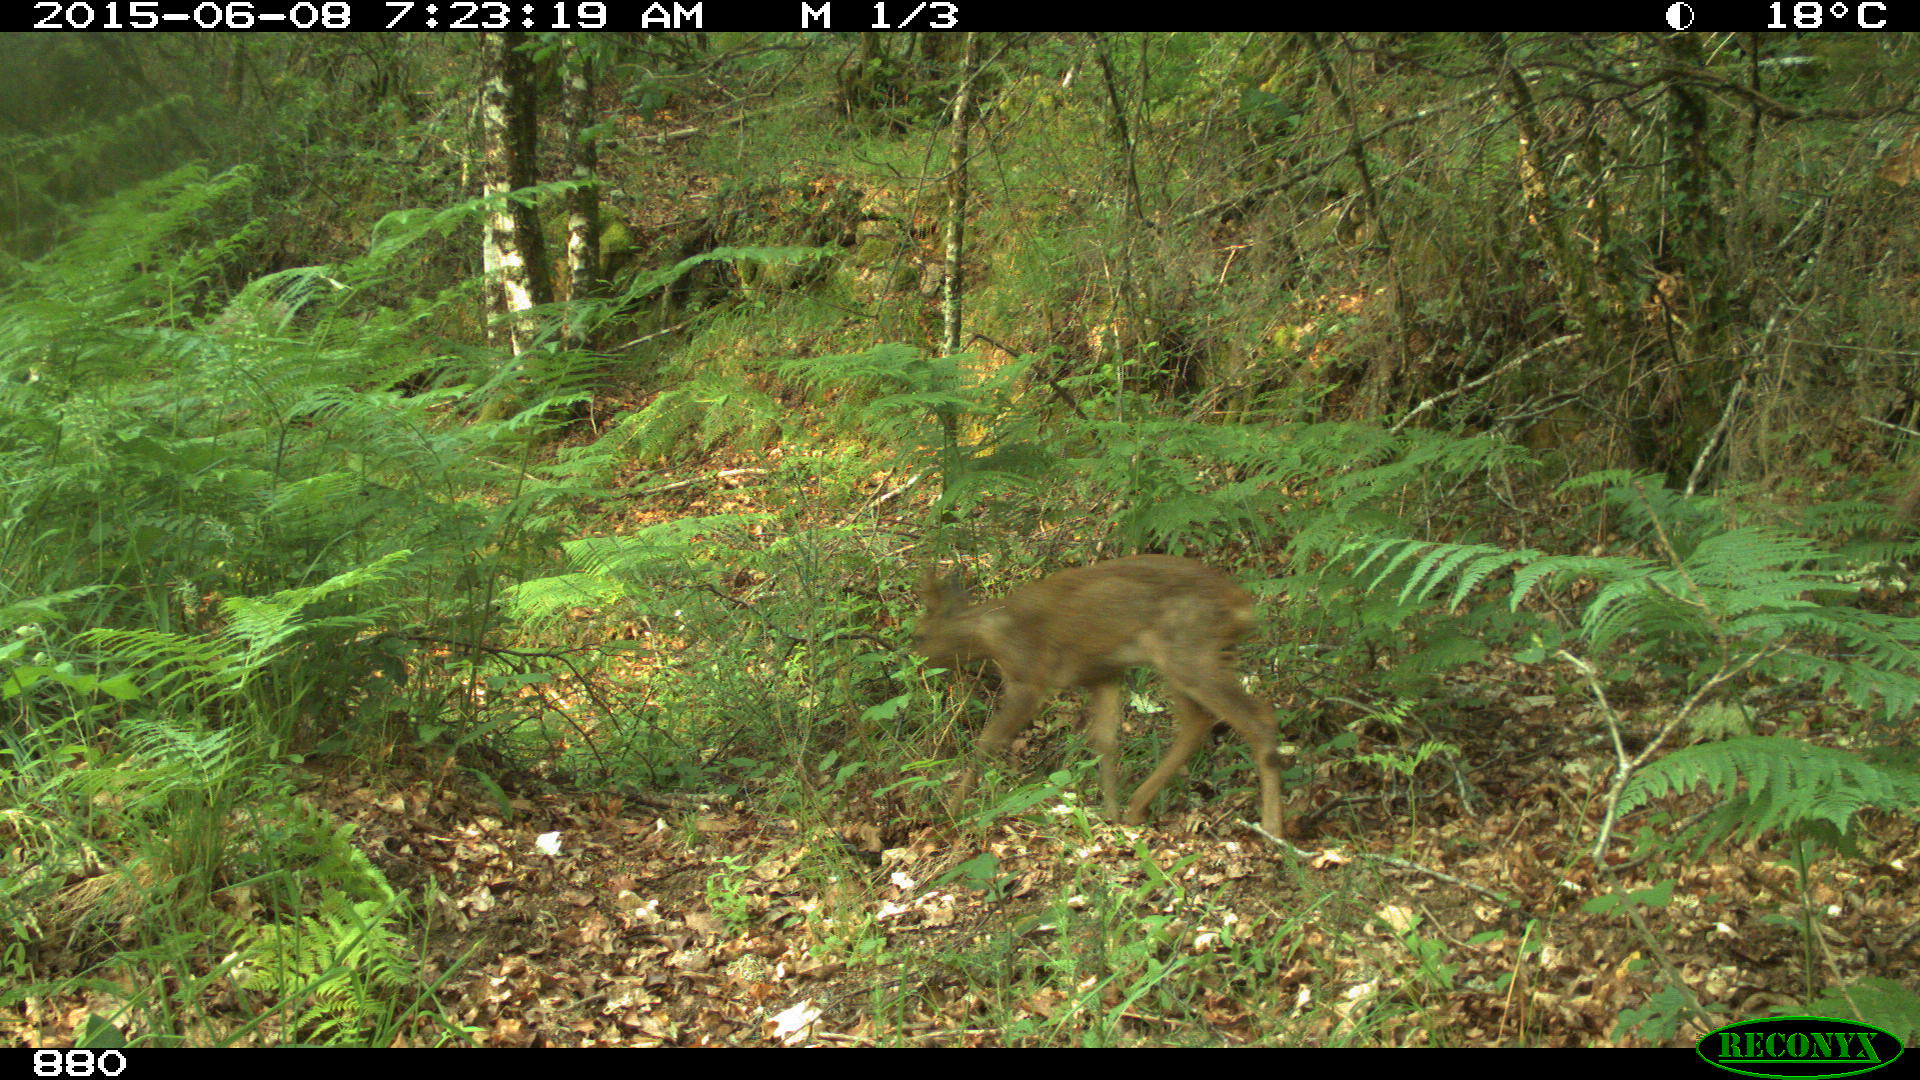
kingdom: Animalia
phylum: Chordata
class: Mammalia
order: Artiodactyla
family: Cervidae
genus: Capreolus
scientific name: Capreolus capreolus
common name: Western roe deer
